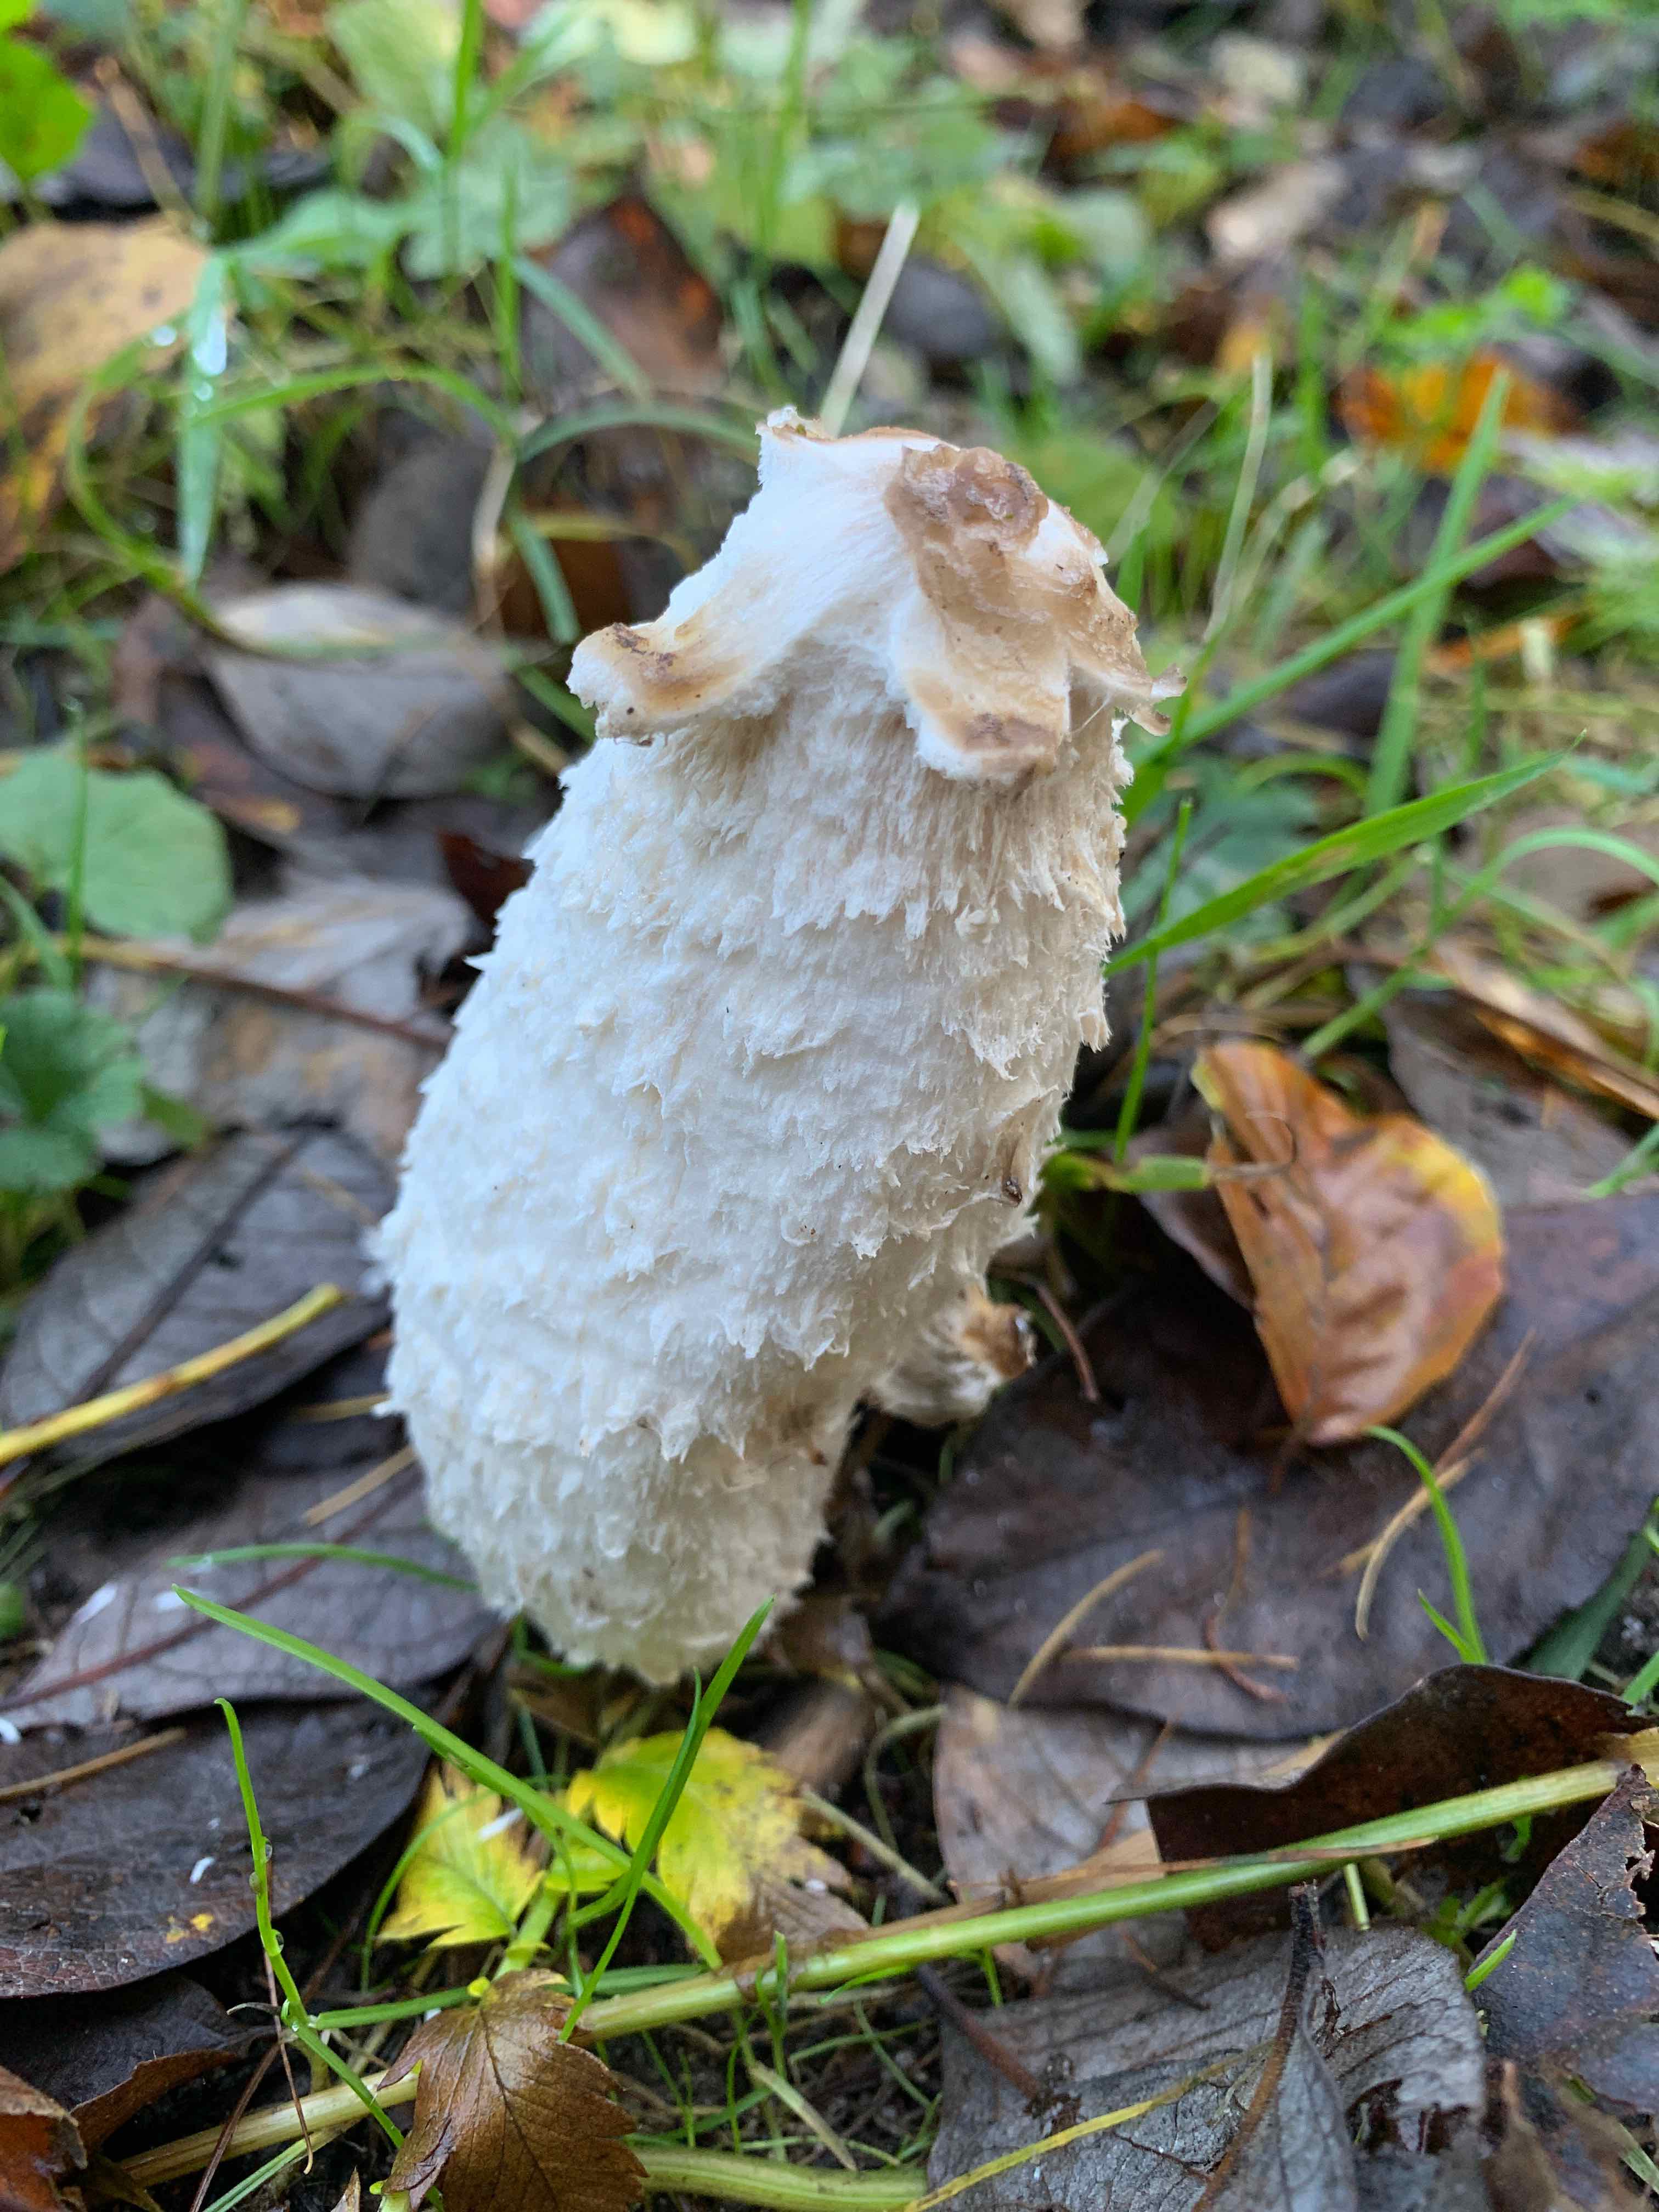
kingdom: Fungi
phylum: Basidiomycota
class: Agaricomycetes
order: Agaricales
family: Agaricaceae
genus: Coprinus
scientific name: Coprinus comatus
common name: stor parykhat
